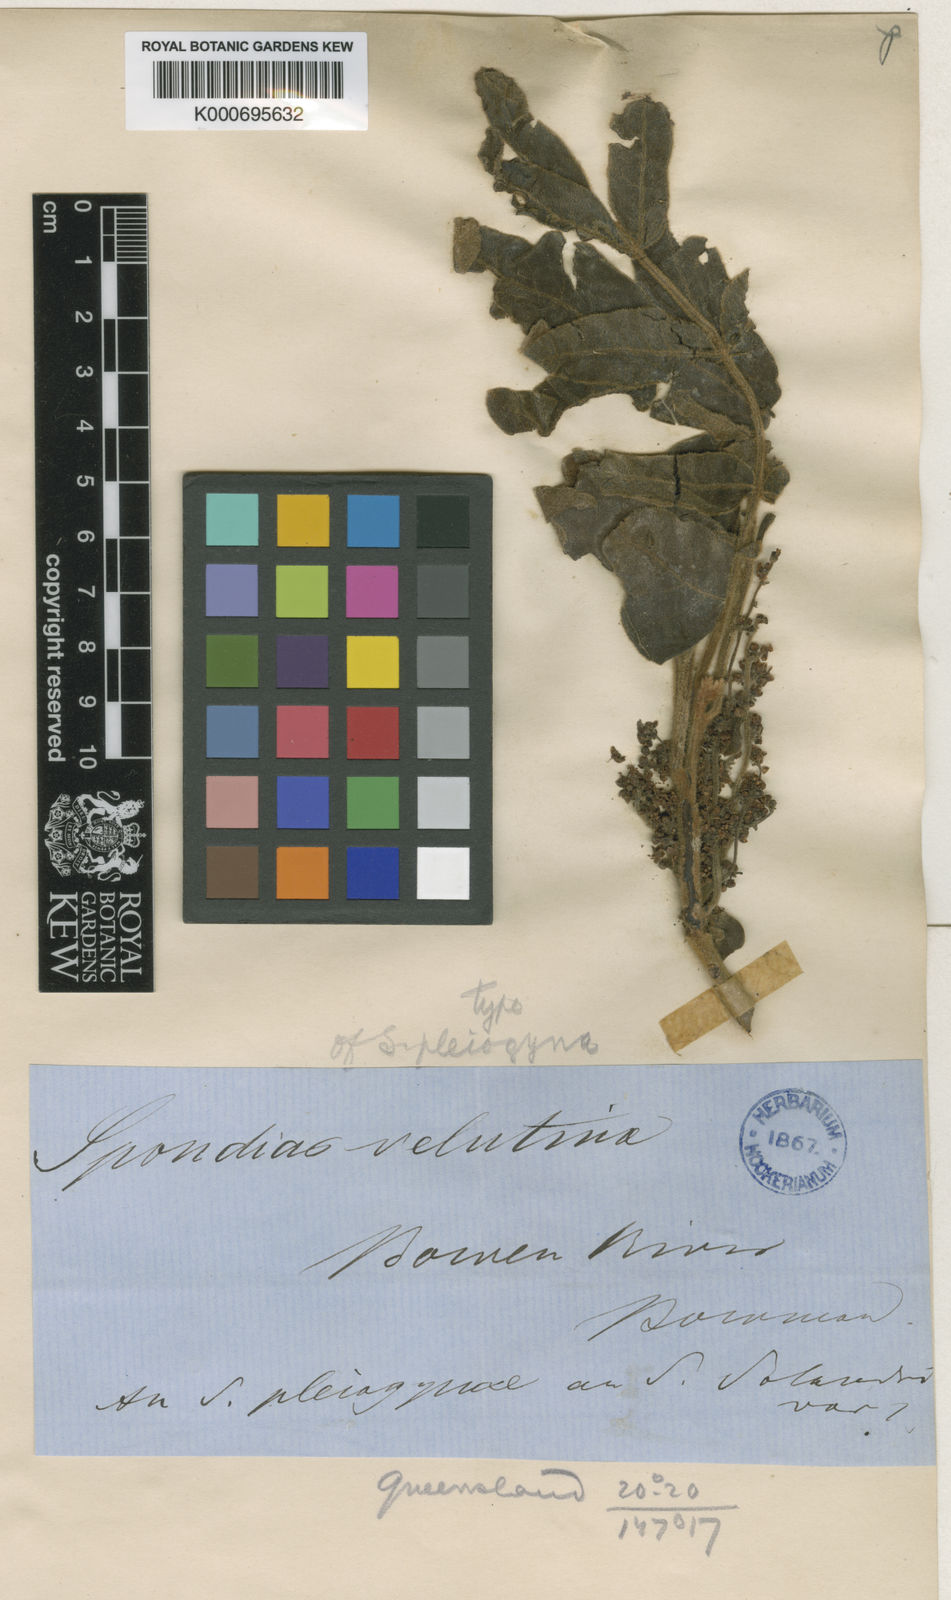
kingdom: Plantae
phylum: Tracheophyta
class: Magnoliopsida
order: Sapindales
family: Anacardiaceae
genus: Pleiogynium
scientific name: Pleiogynium timoriense
